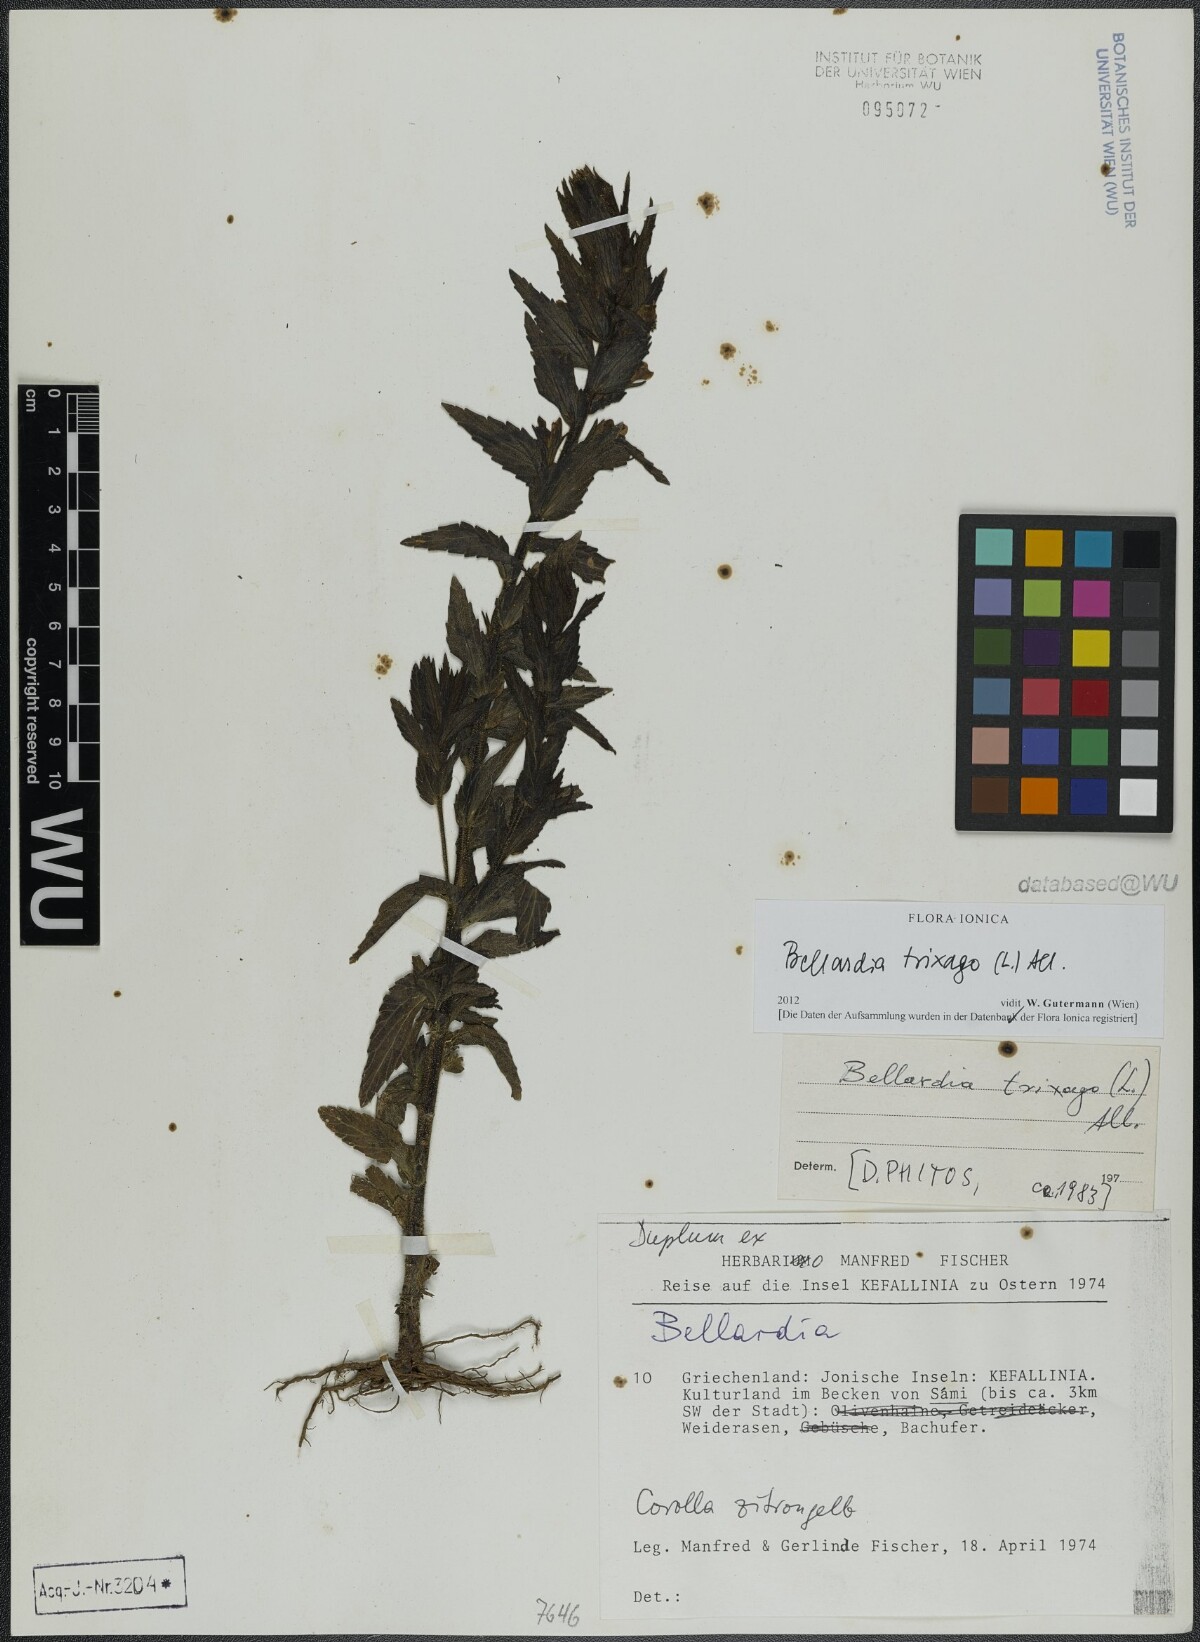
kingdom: Plantae
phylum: Tracheophyta
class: Magnoliopsida
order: Lamiales
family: Orobanchaceae
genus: Bellardia
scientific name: Bellardia trixago
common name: Mediterranean lineseed
